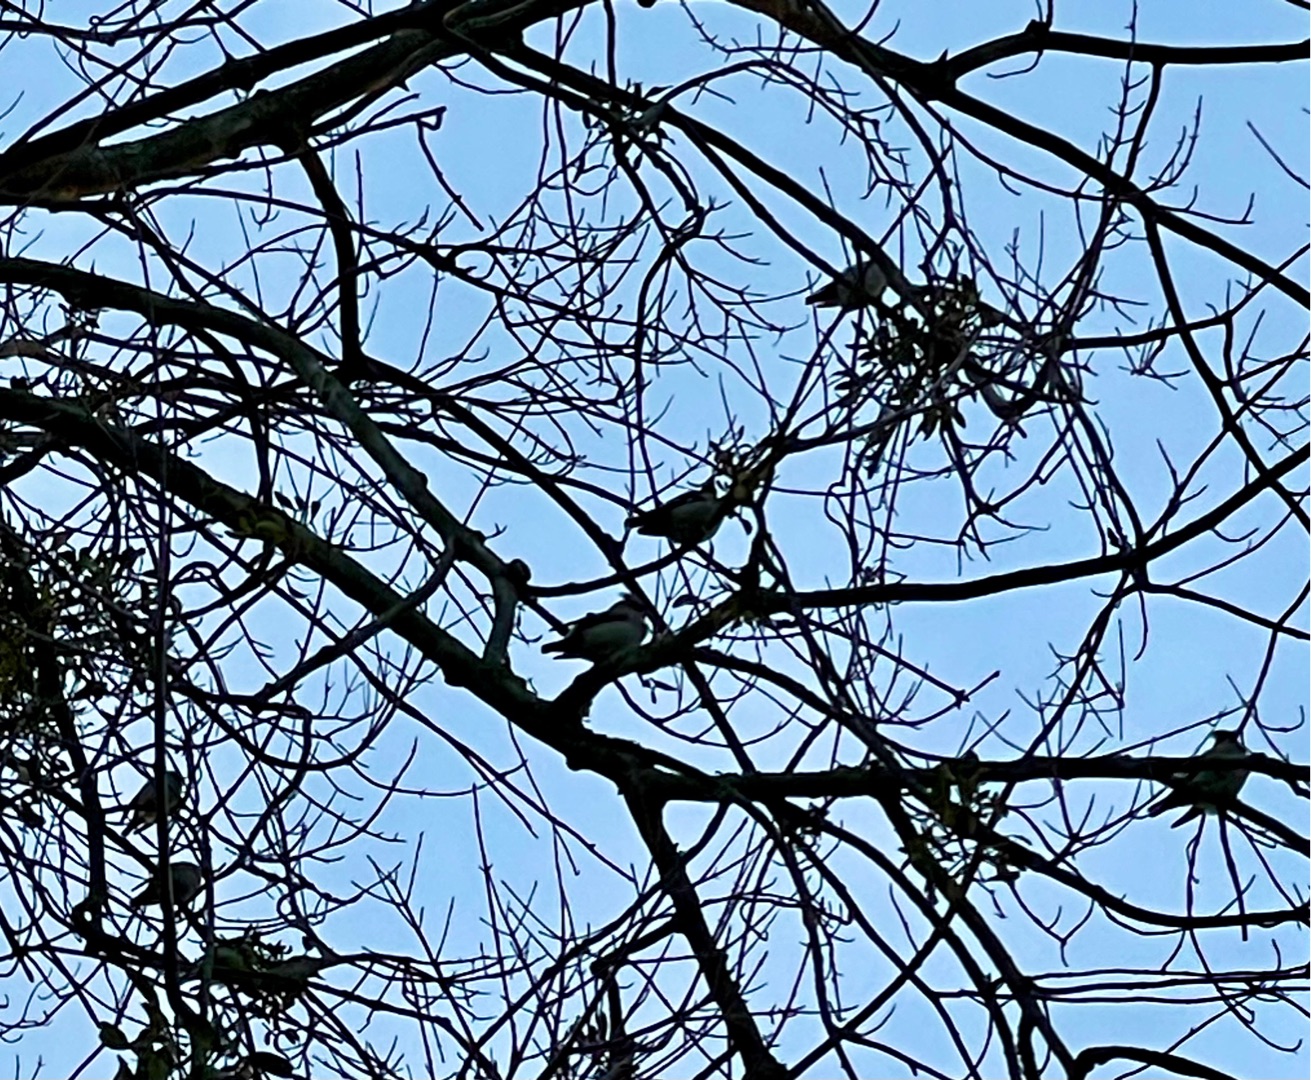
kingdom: Animalia
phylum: Chordata
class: Aves
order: Passeriformes
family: Bombycillidae
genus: Bombycilla
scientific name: Bombycilla garrulus
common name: Silkehale
